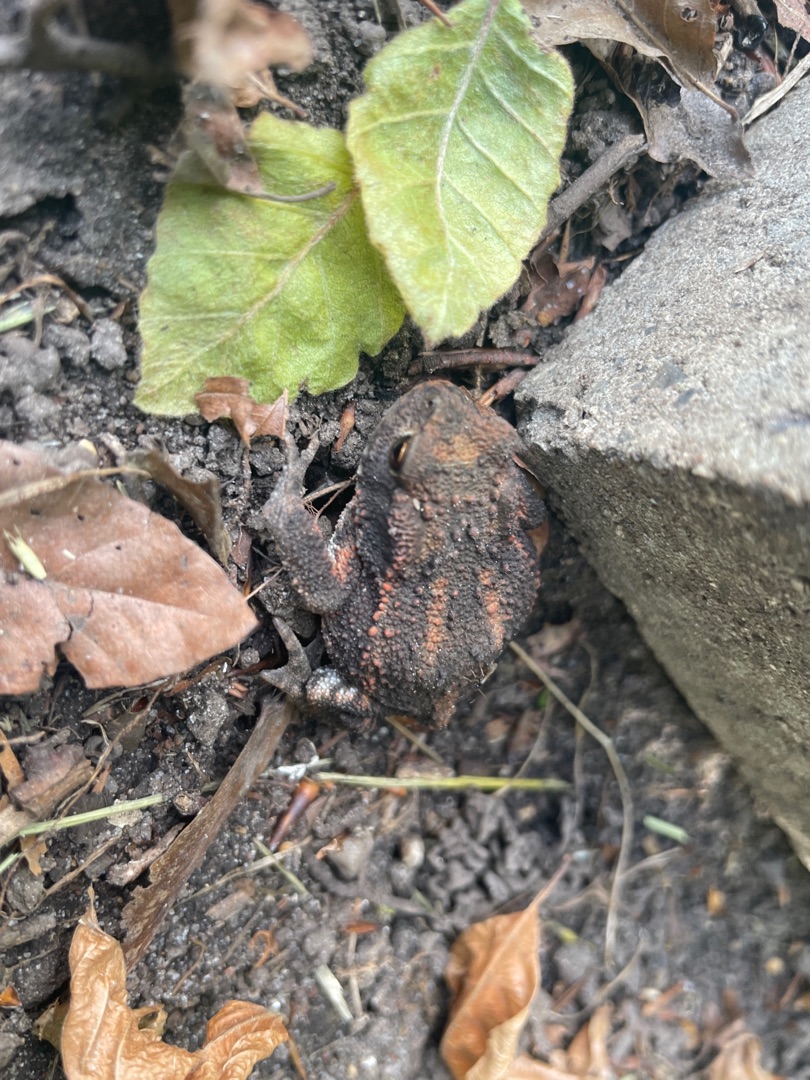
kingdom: Animalia
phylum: Chordata
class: Amphibia
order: Anura
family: Bufonidae
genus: Bufo
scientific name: Bufo bufo
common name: Skrubtudse
